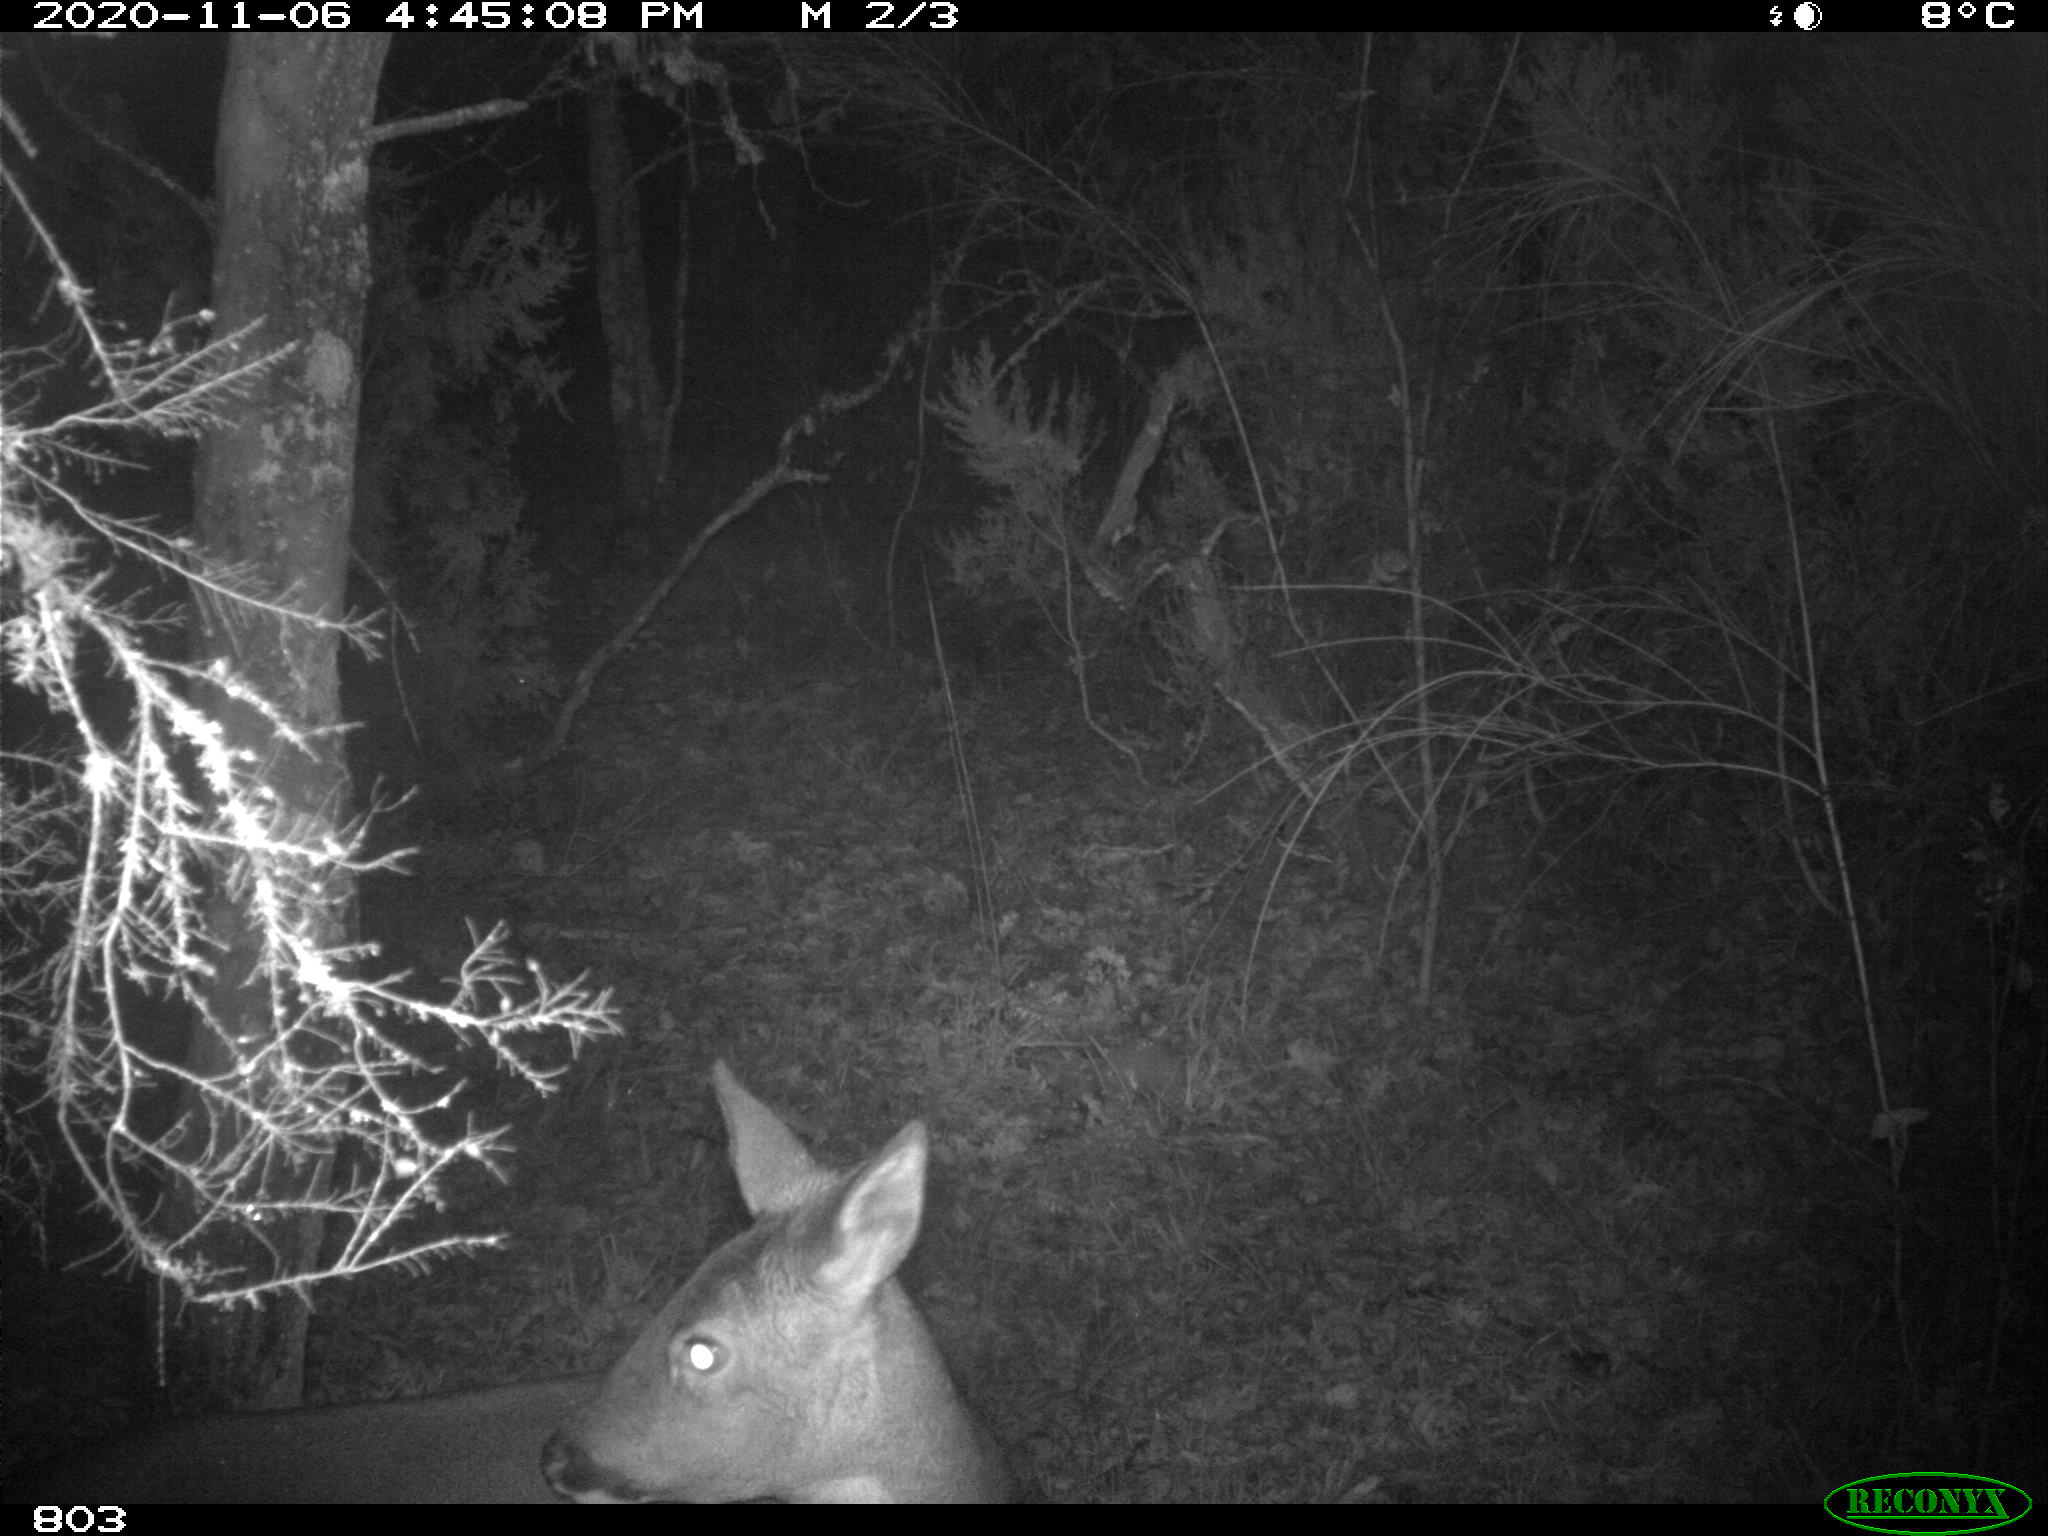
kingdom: Animalia
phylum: Chordata
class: Mammalia
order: Artiodactyla
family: Cervidae
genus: Capreolus
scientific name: Capreolus capreolus
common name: Western roe deer
